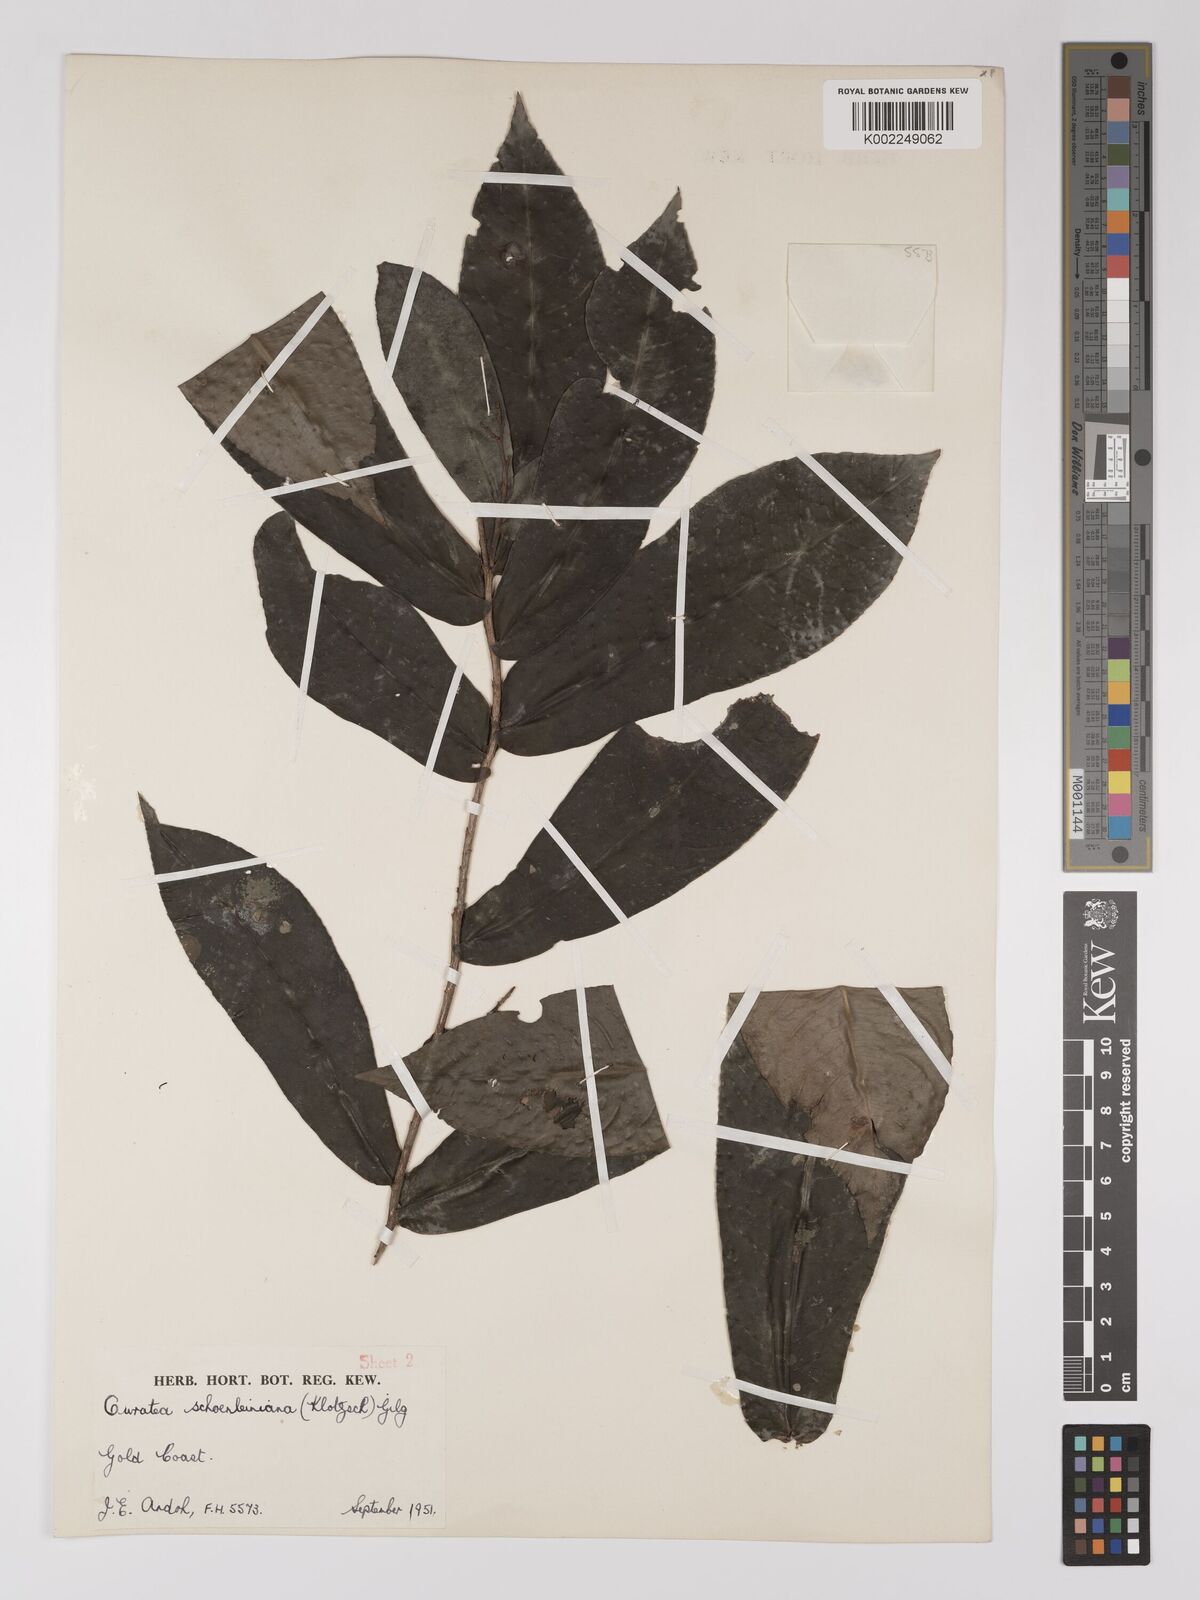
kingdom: Plantae
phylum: Tracheophyta
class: Magnoliopsida
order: Malpighiales
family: Ochnaceae
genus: Campylospermum
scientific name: Campylospermum schoenleinianum
